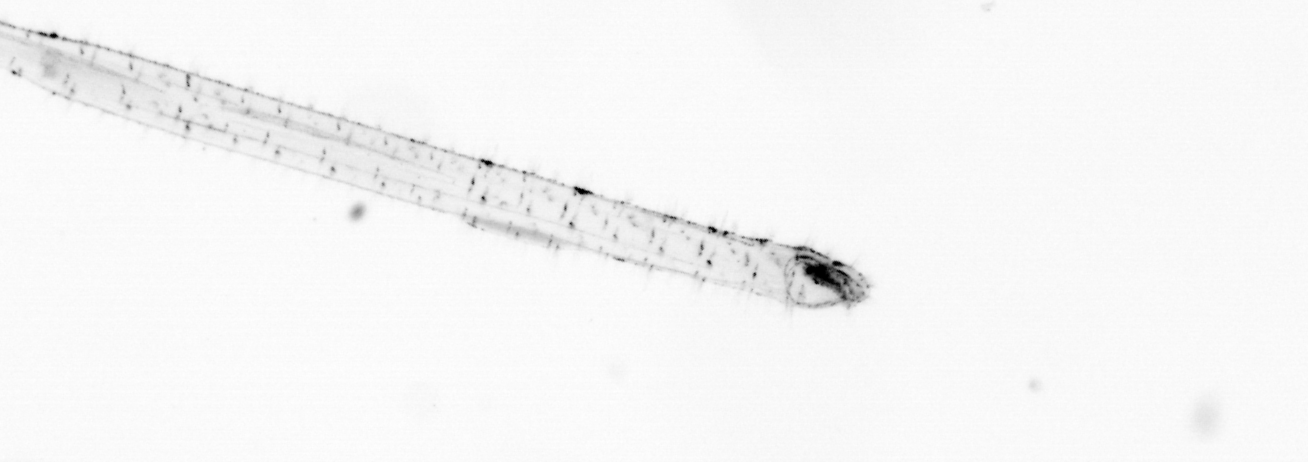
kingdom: Animalia
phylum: Chaetognatha
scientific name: Chaetognatha
